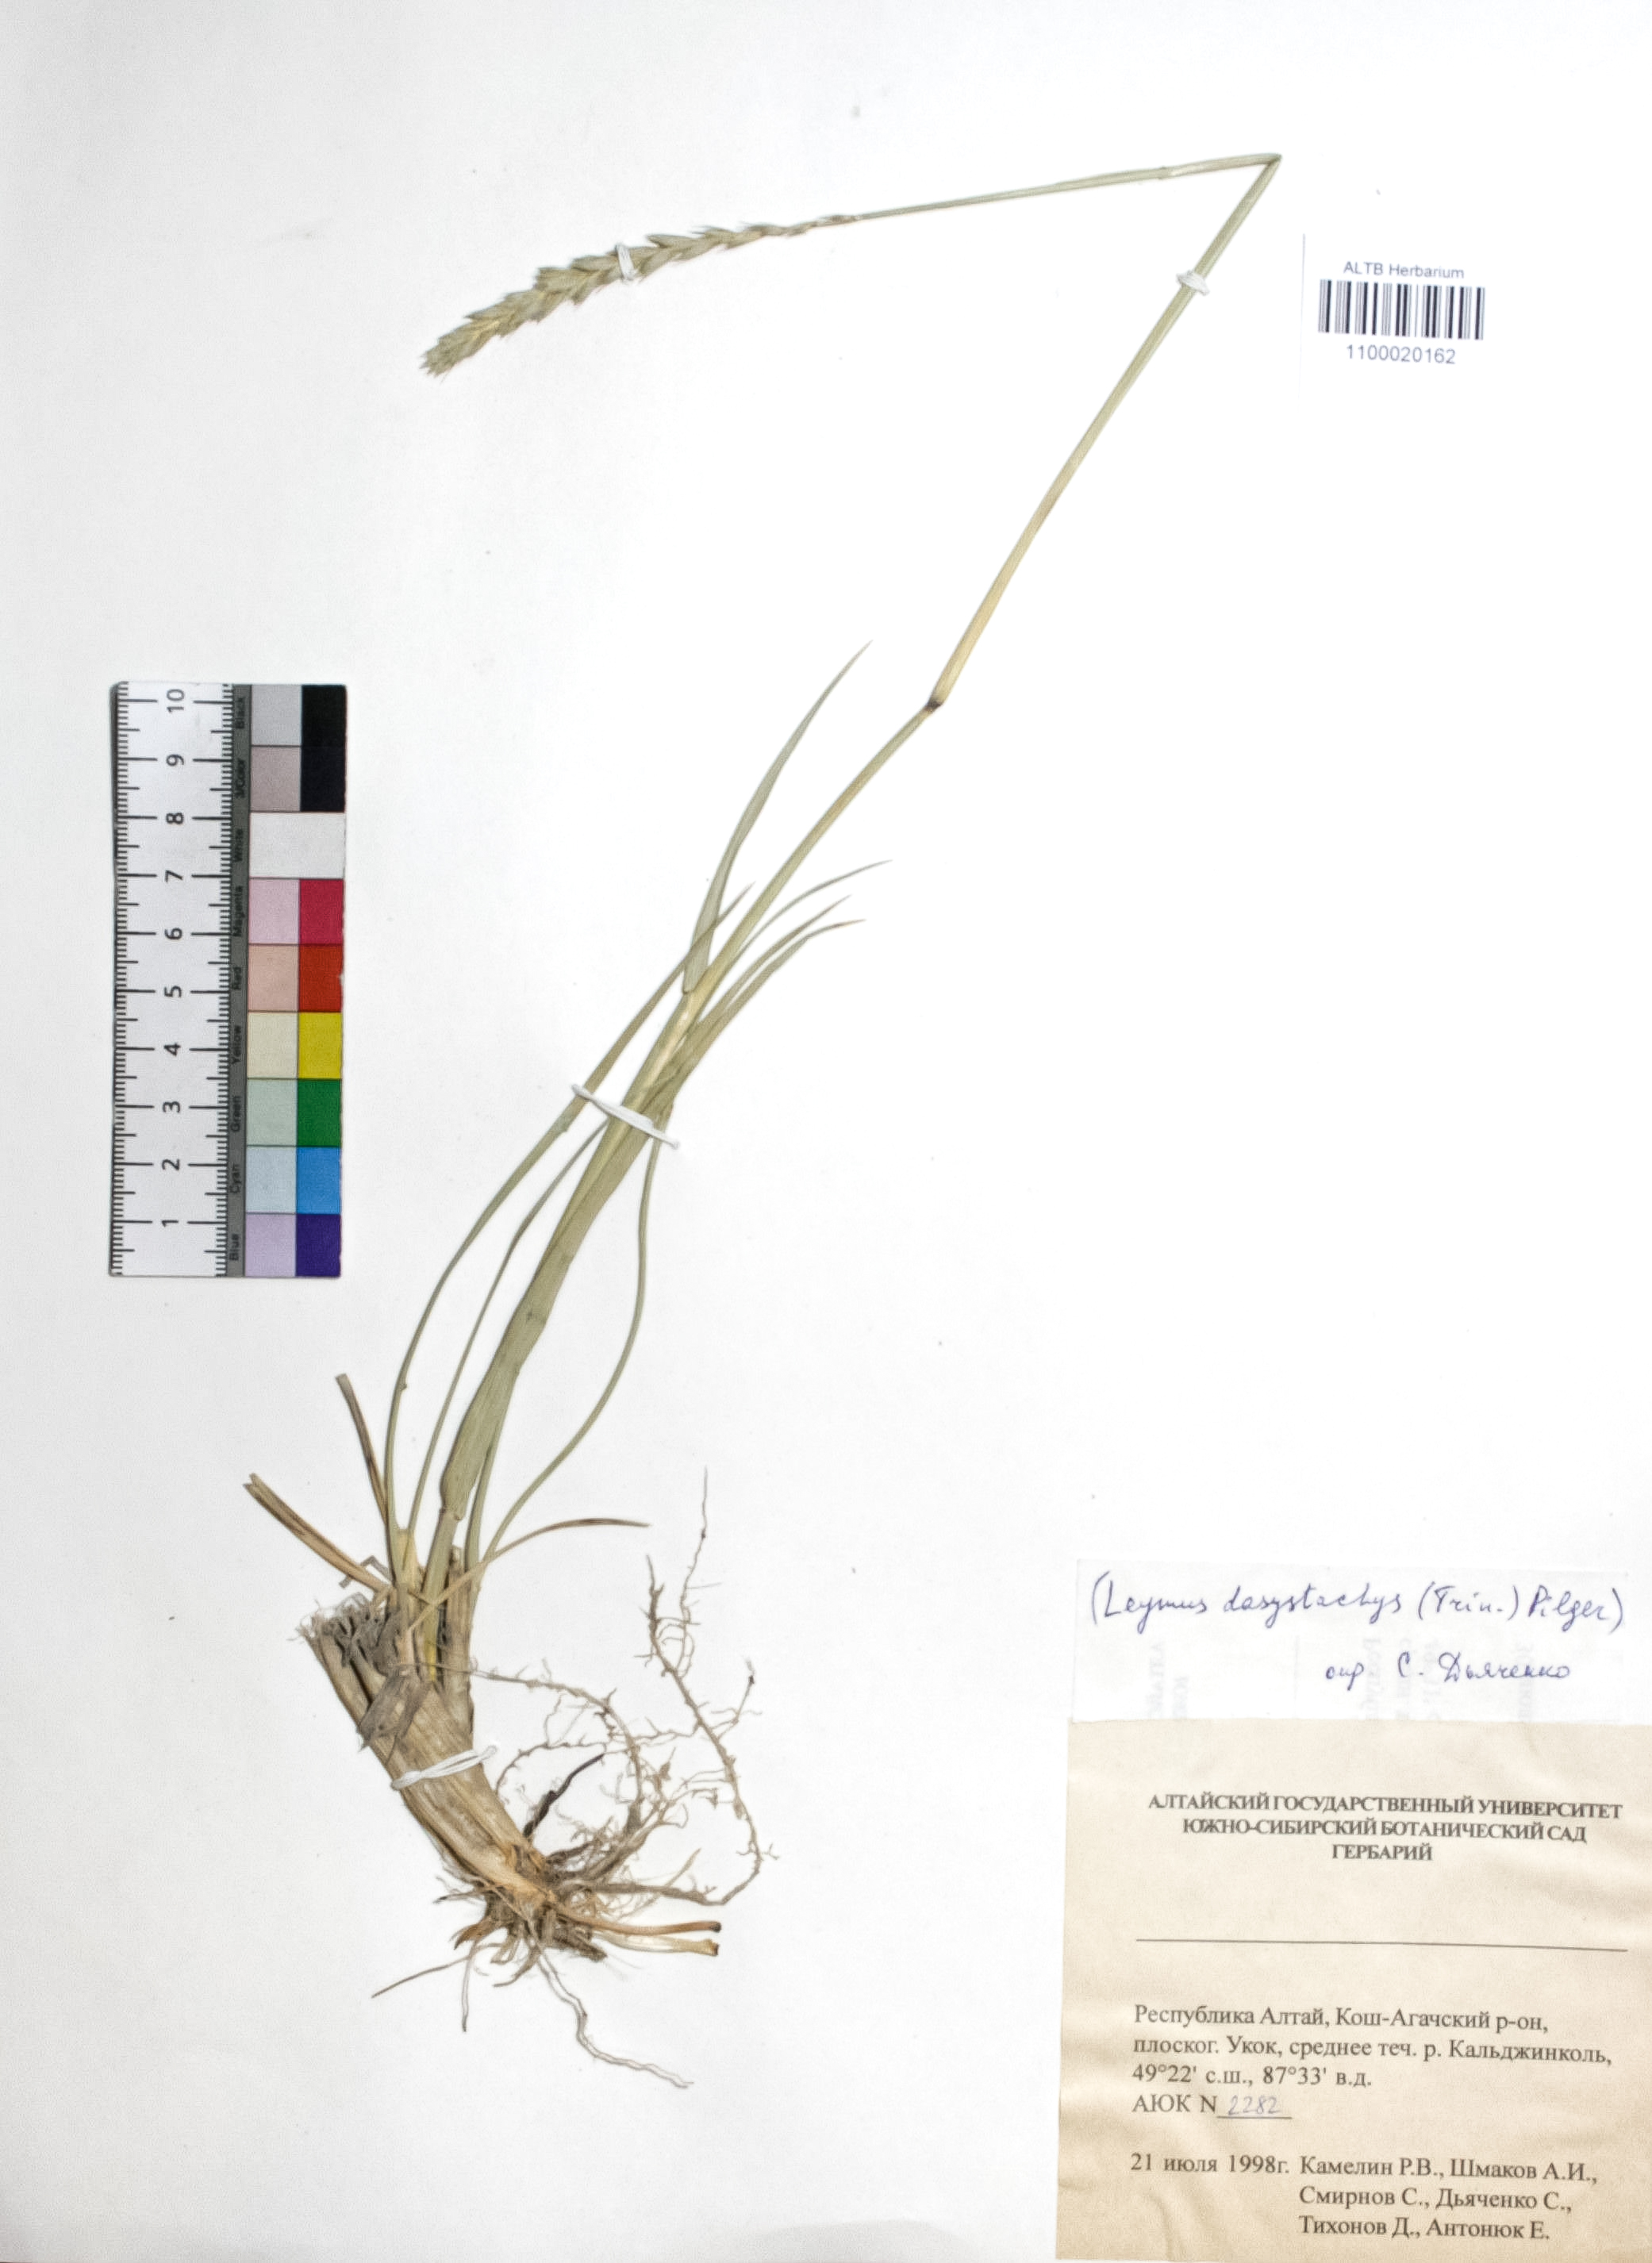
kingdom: Plantae
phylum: Tracheophyta
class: Liliopsida
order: Poales
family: Poaceae
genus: Leymus
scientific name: Leymus secalinus
